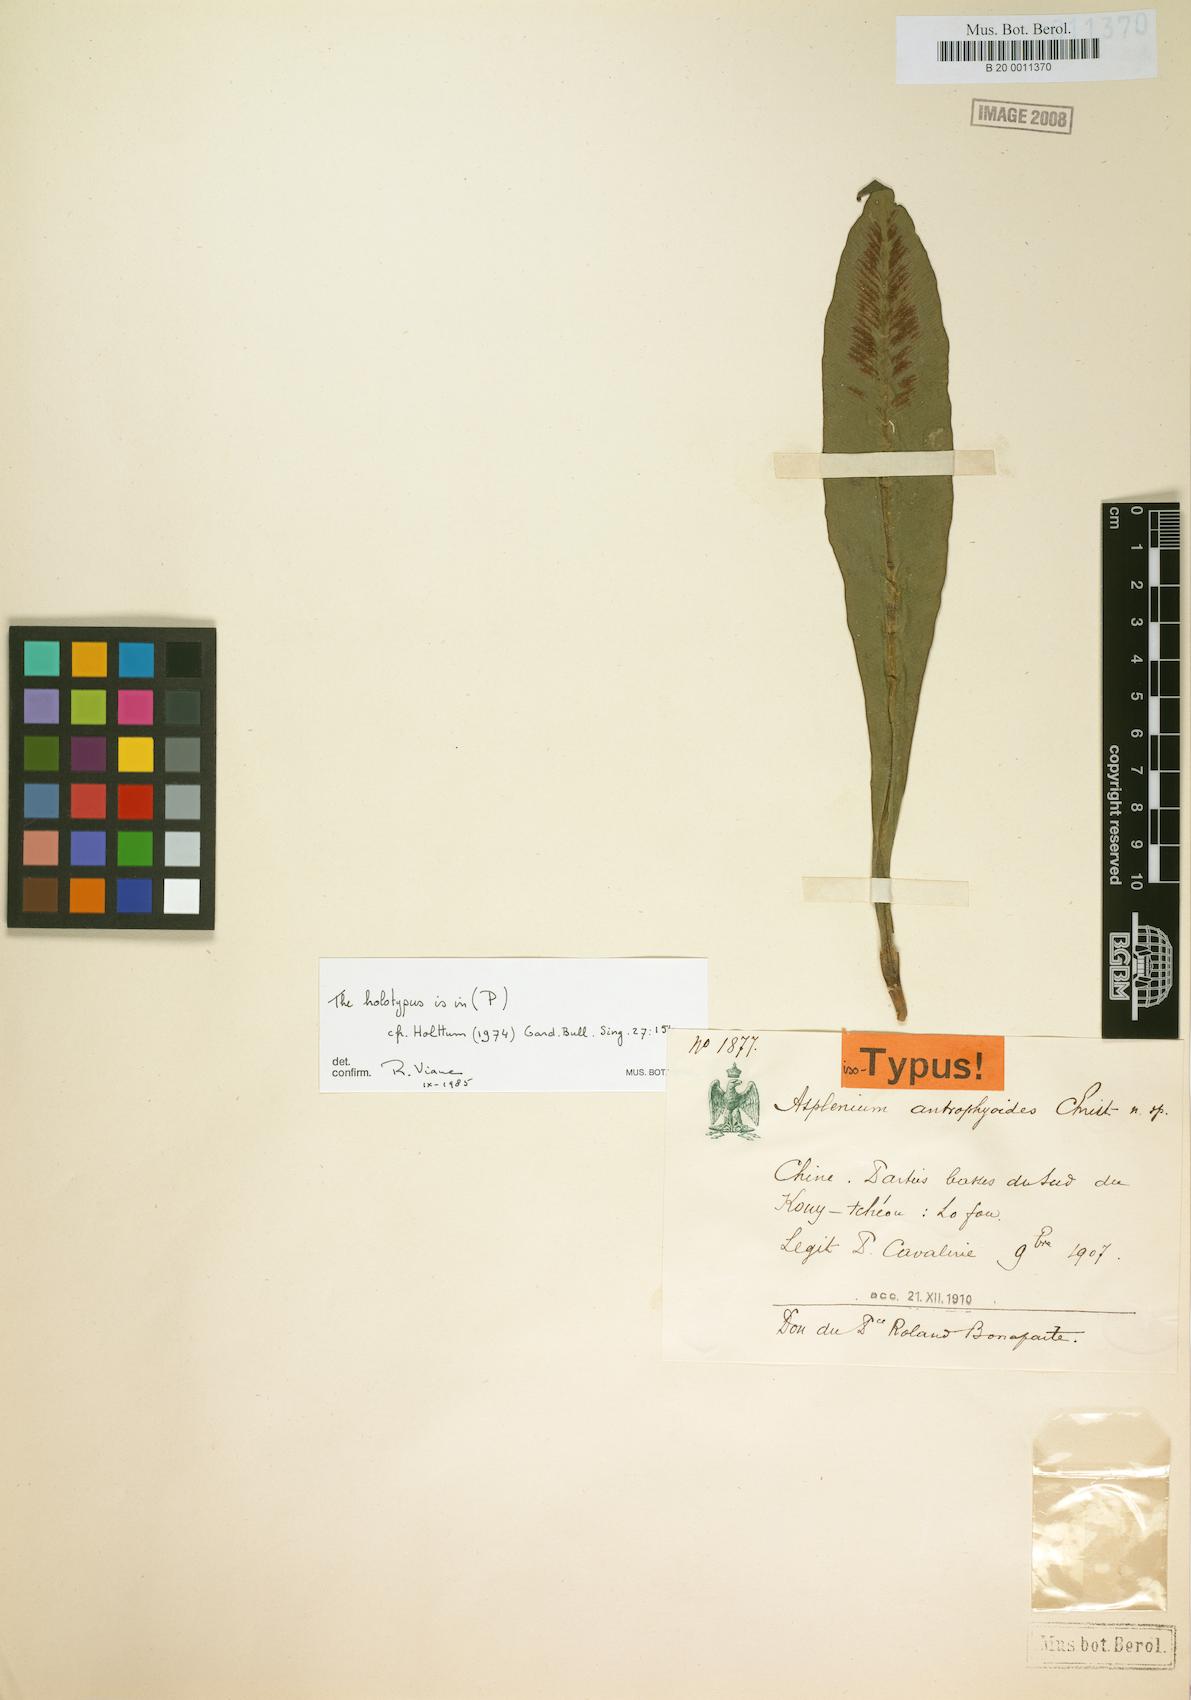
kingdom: Plantae
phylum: Tracheophyta
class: Polypodiopsida
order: Polypodiales
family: Aspleniaceae
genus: Asplenium
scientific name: Asplenium antrophyoides
